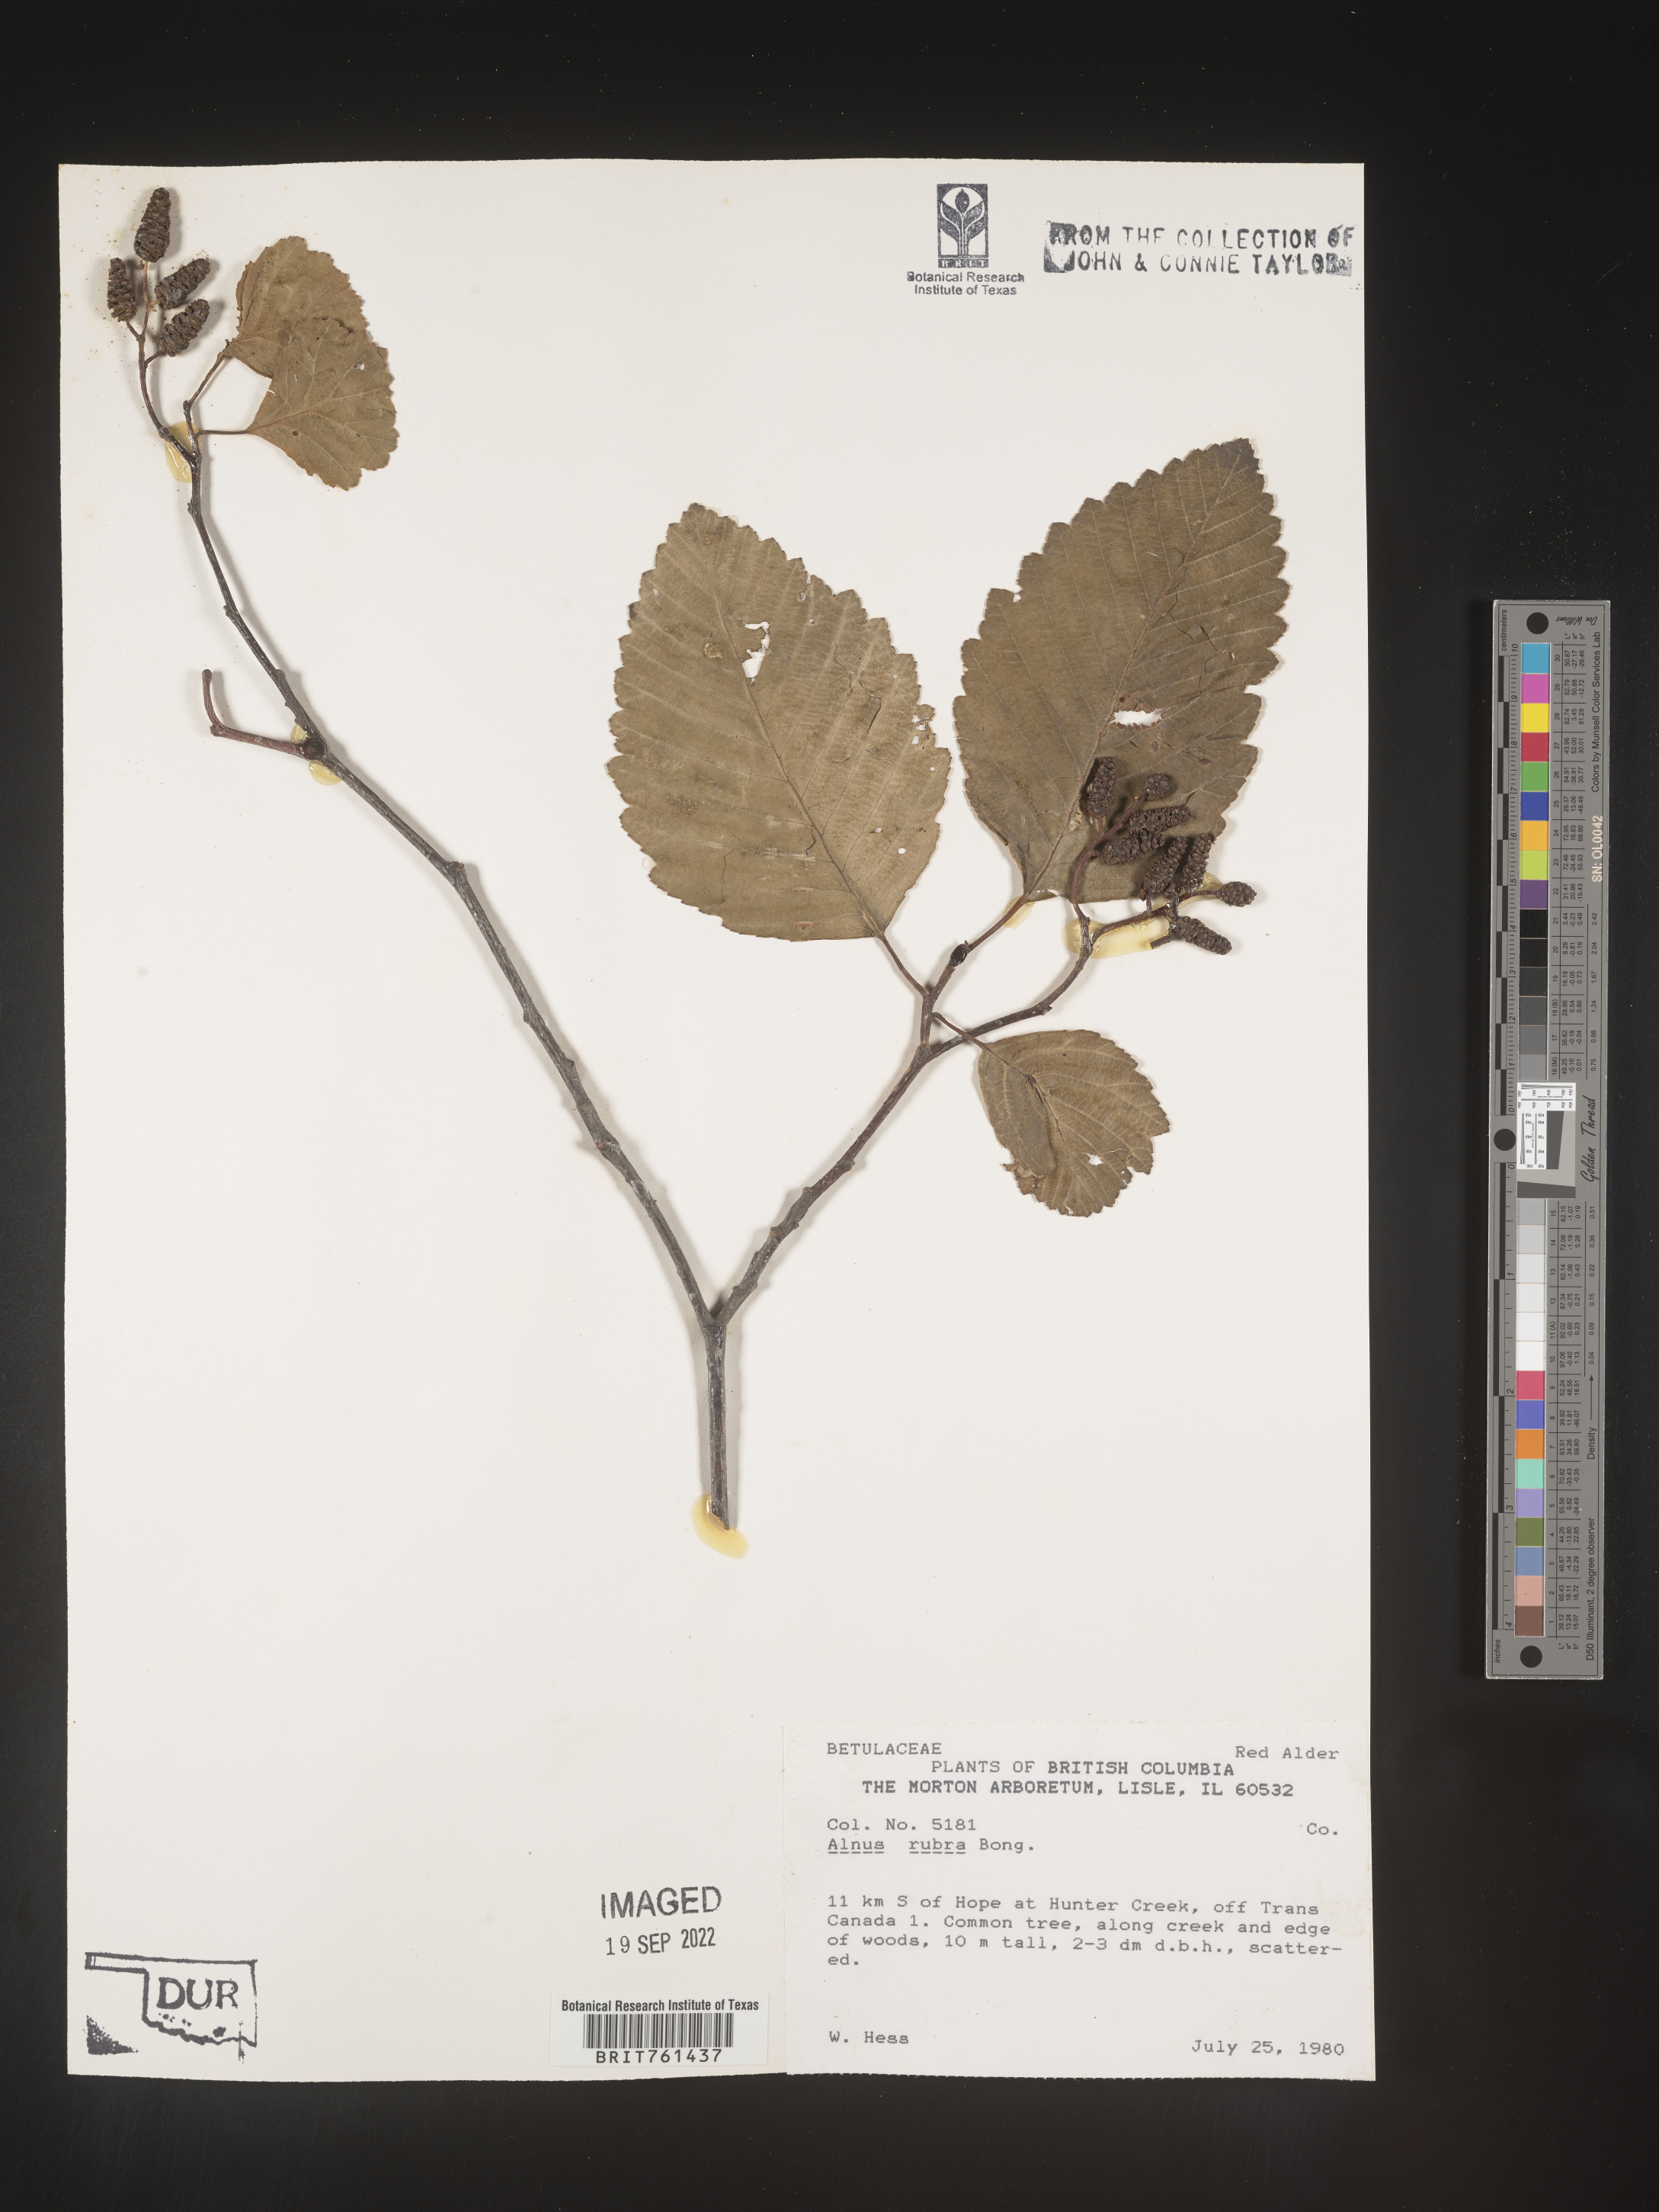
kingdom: Plantae
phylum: Tracheophyta
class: Magnoliopsida
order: Fagales
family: Betulaceae
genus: Alnus
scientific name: Alnus rubra
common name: Red alder
